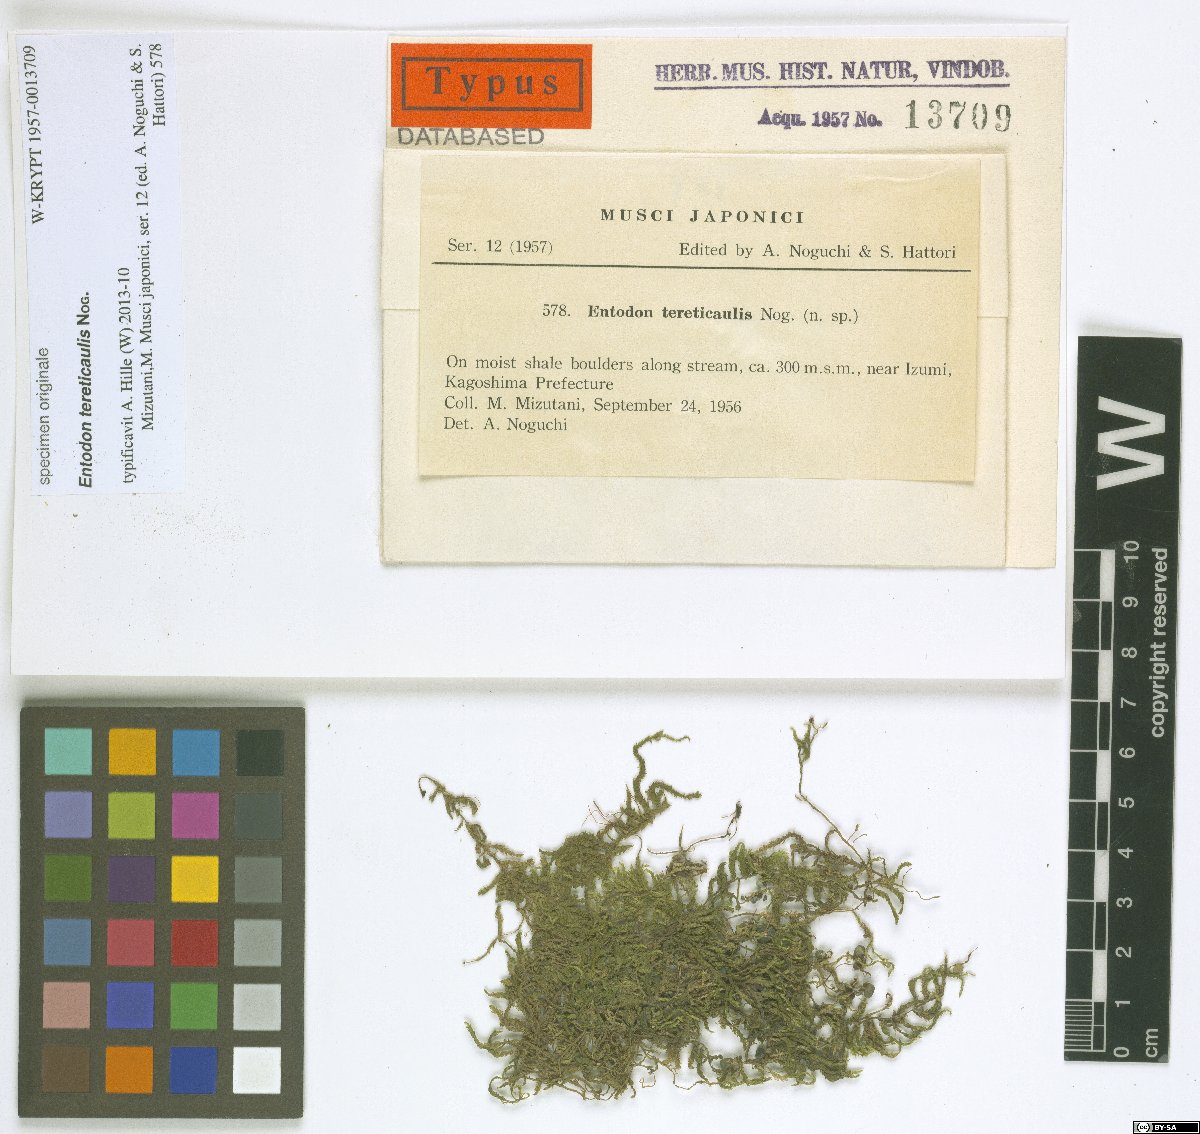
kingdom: Plantae
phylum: Bryophyta
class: Bryopsida
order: Hypnales
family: Entodontaceae
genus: Entodon
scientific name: Entodon subcuspidatus
